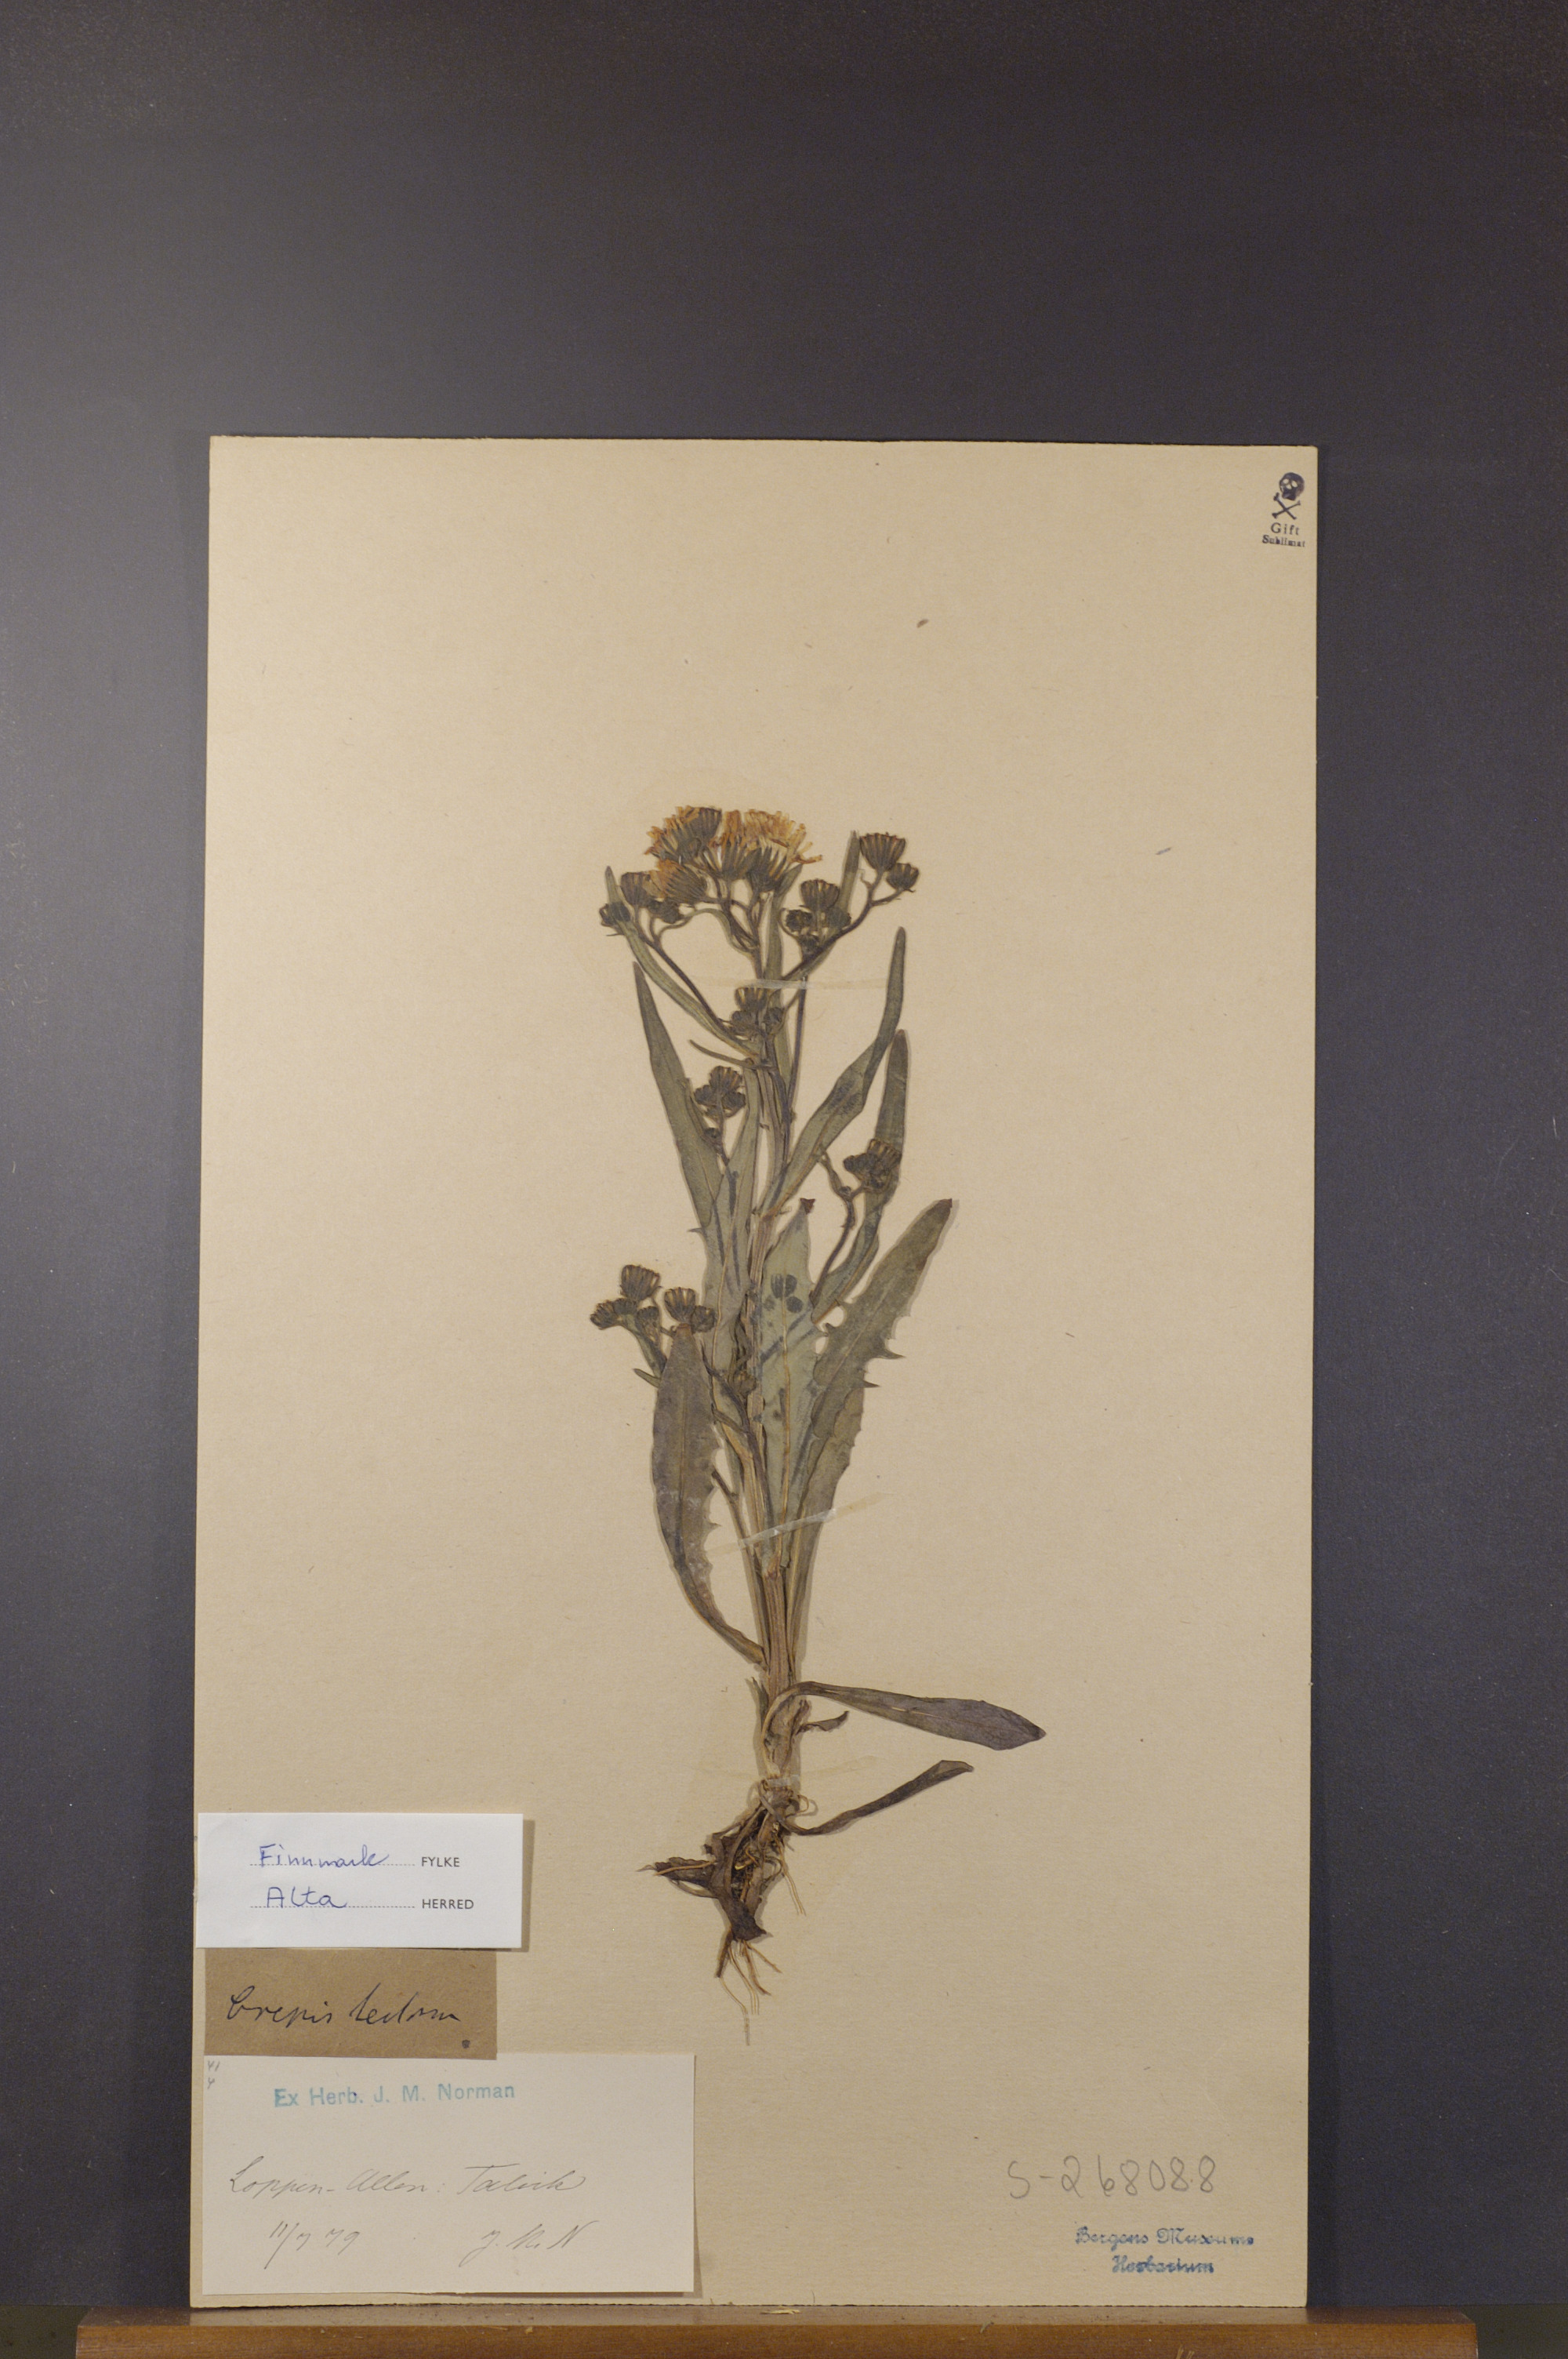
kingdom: Plantae
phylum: Tracheophyta
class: Magnoliopsida
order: Asterales
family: Asteraceae
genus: Crepis
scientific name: Crepis tectorum
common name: Narrow-leaved hawk's-beard
